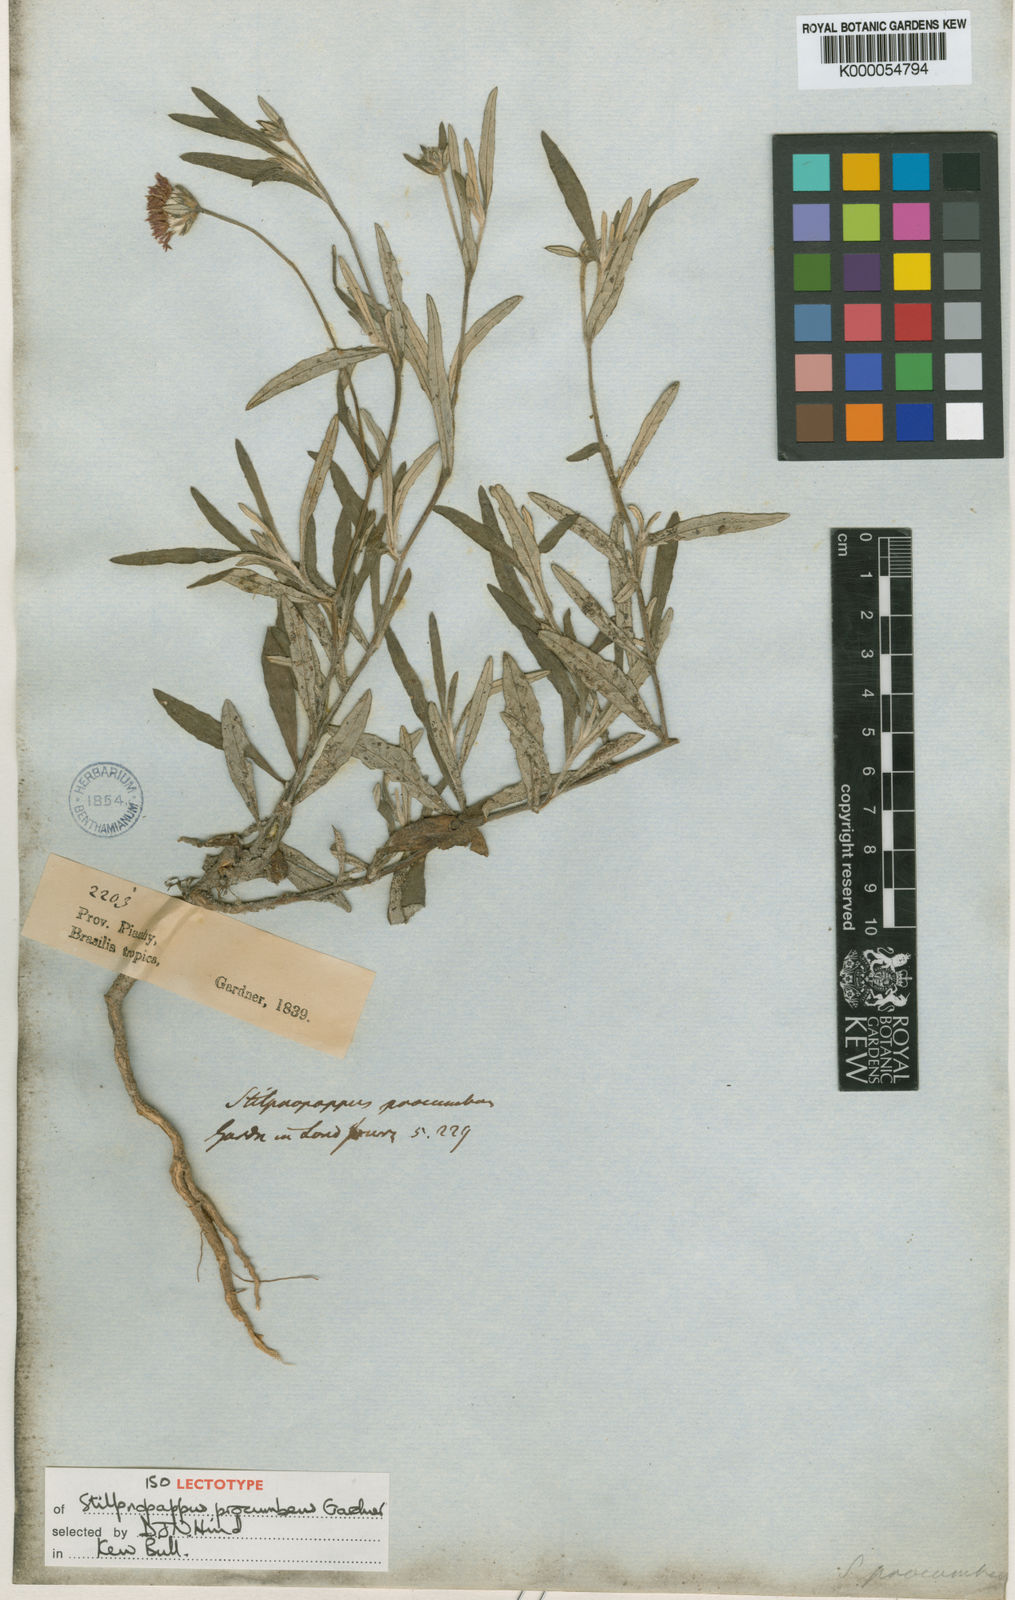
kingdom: Plantae
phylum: Tracheophyta
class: Magnoliopsida
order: Asterales
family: Asteraceae
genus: Stilpnopappus
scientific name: Stilpnopappus trichospiroides
